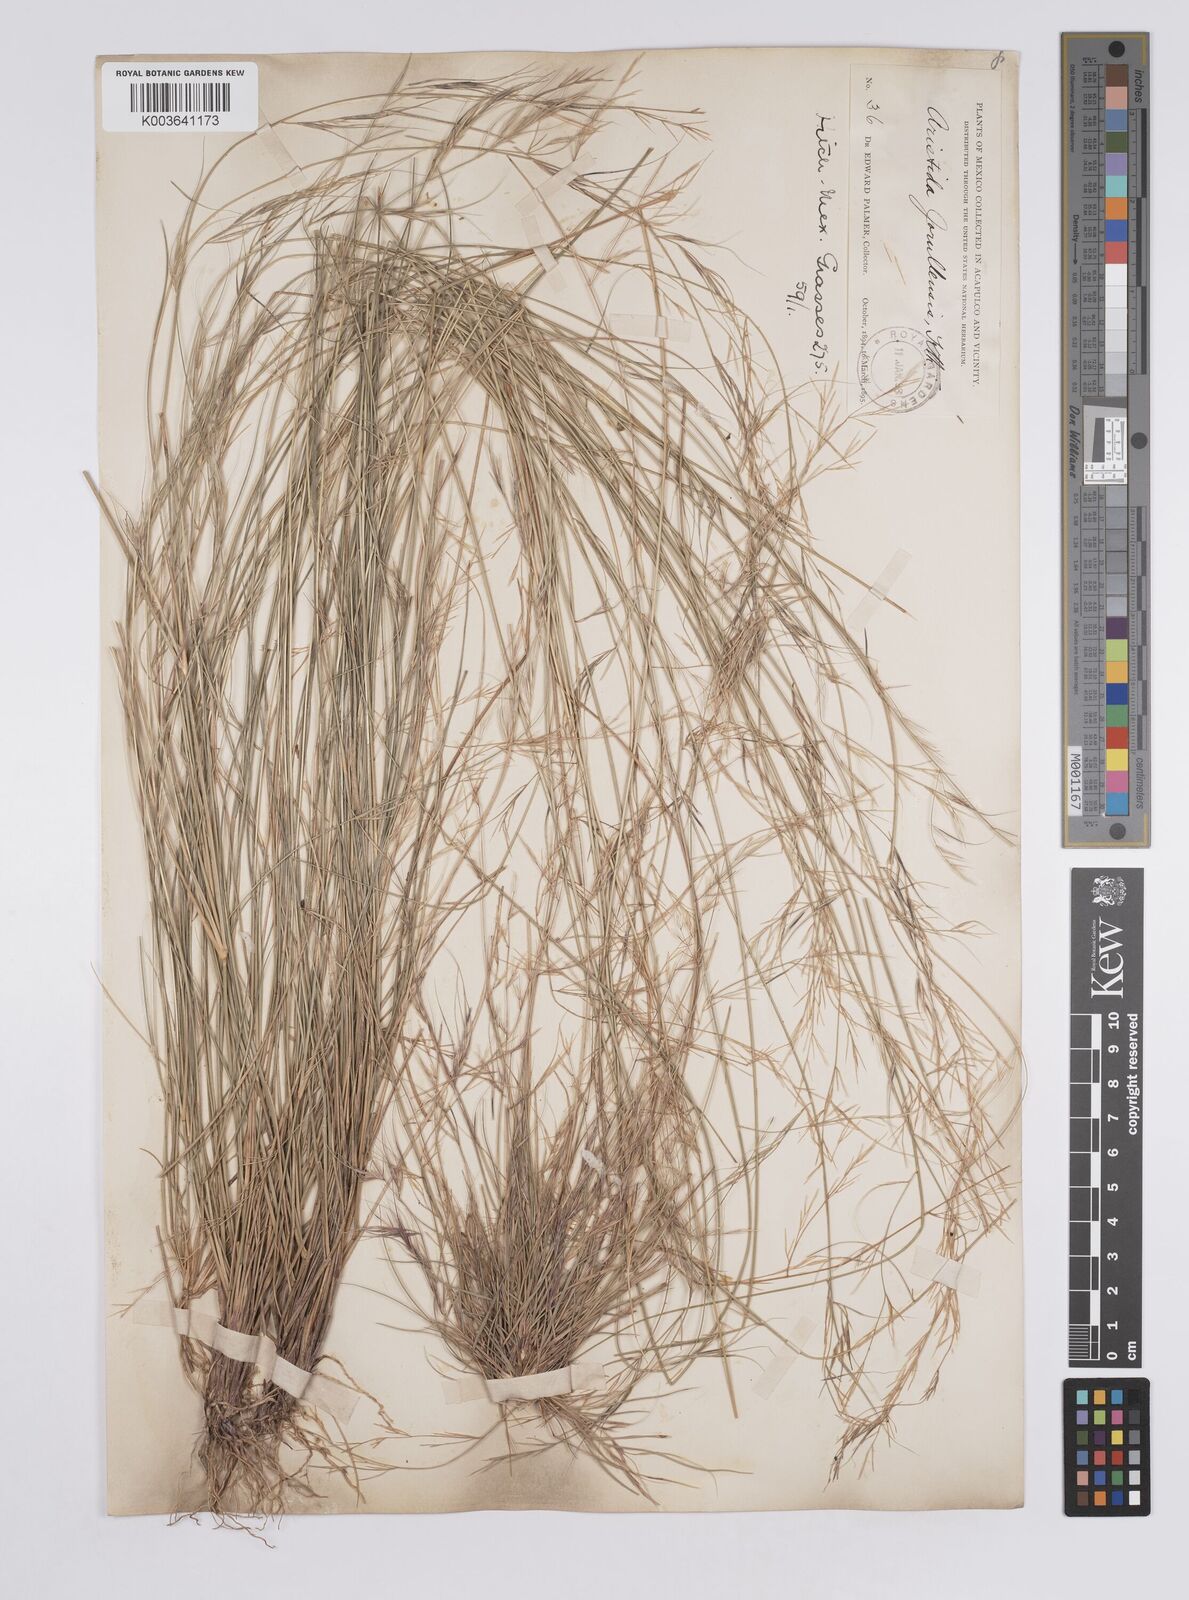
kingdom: Plantae
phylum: Tracheophyta
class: Liliopsida
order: Poales
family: Poaceae
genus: Aristida
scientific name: Aristida jorullensis
